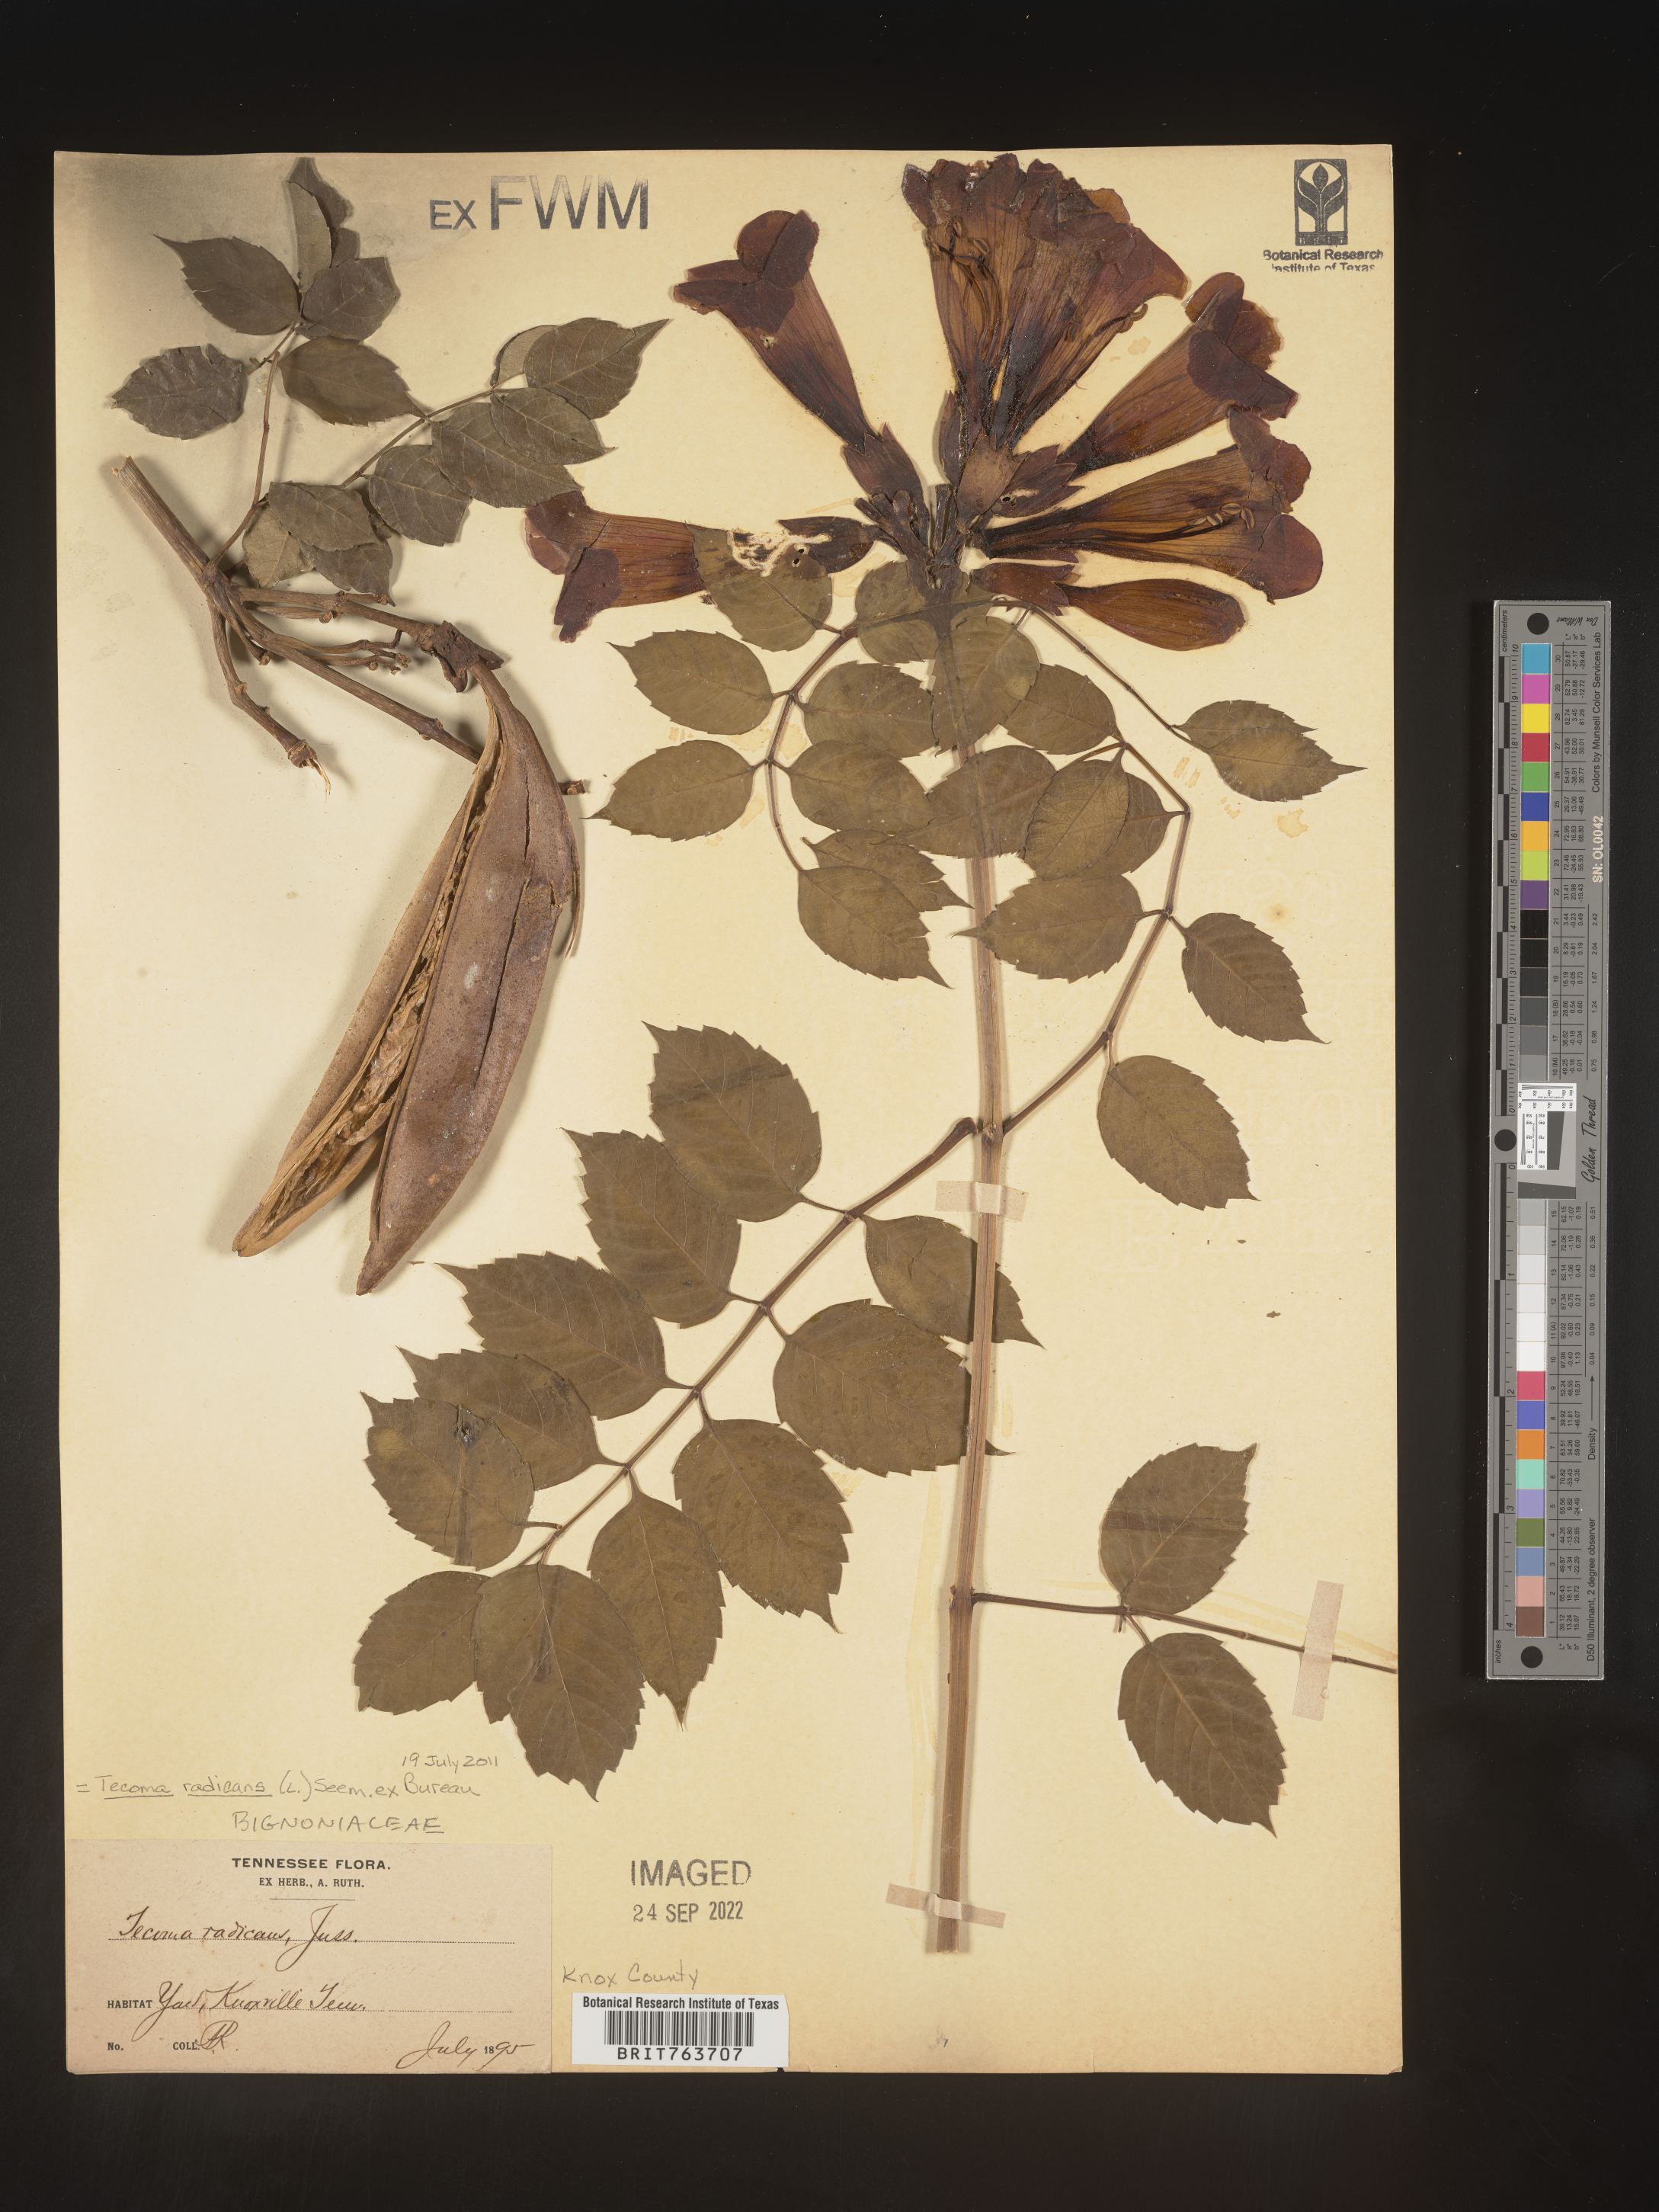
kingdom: Plantae
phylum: Tracheophyta
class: Magnoliopsida
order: Lamiales
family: Bignoniaceae
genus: Tecoma
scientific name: Tecoma
